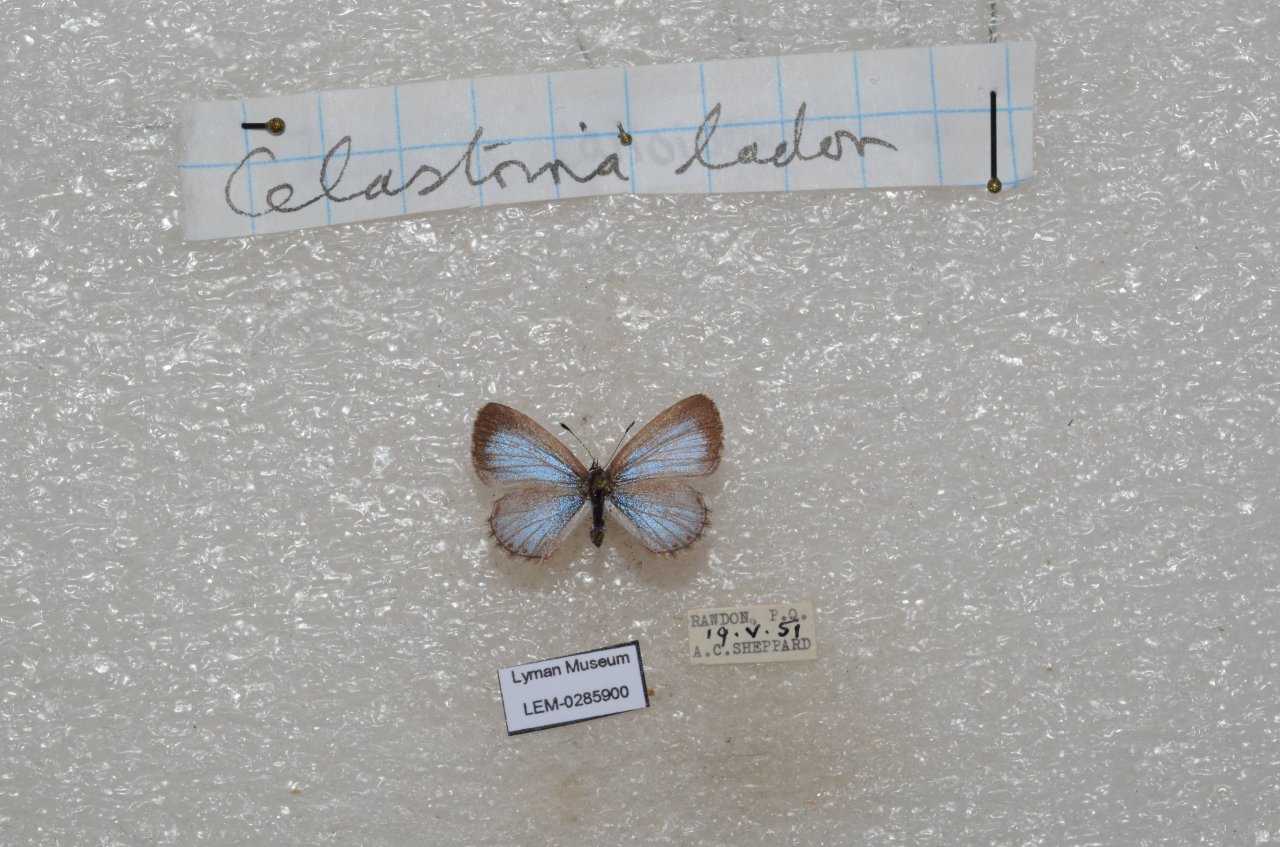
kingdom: Animalia
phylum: Arthropoda
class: Insecta
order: Lepidoptera
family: Lycaenidae
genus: Celastrina
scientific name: Celastrina lucia
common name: Northern Spring Azure
